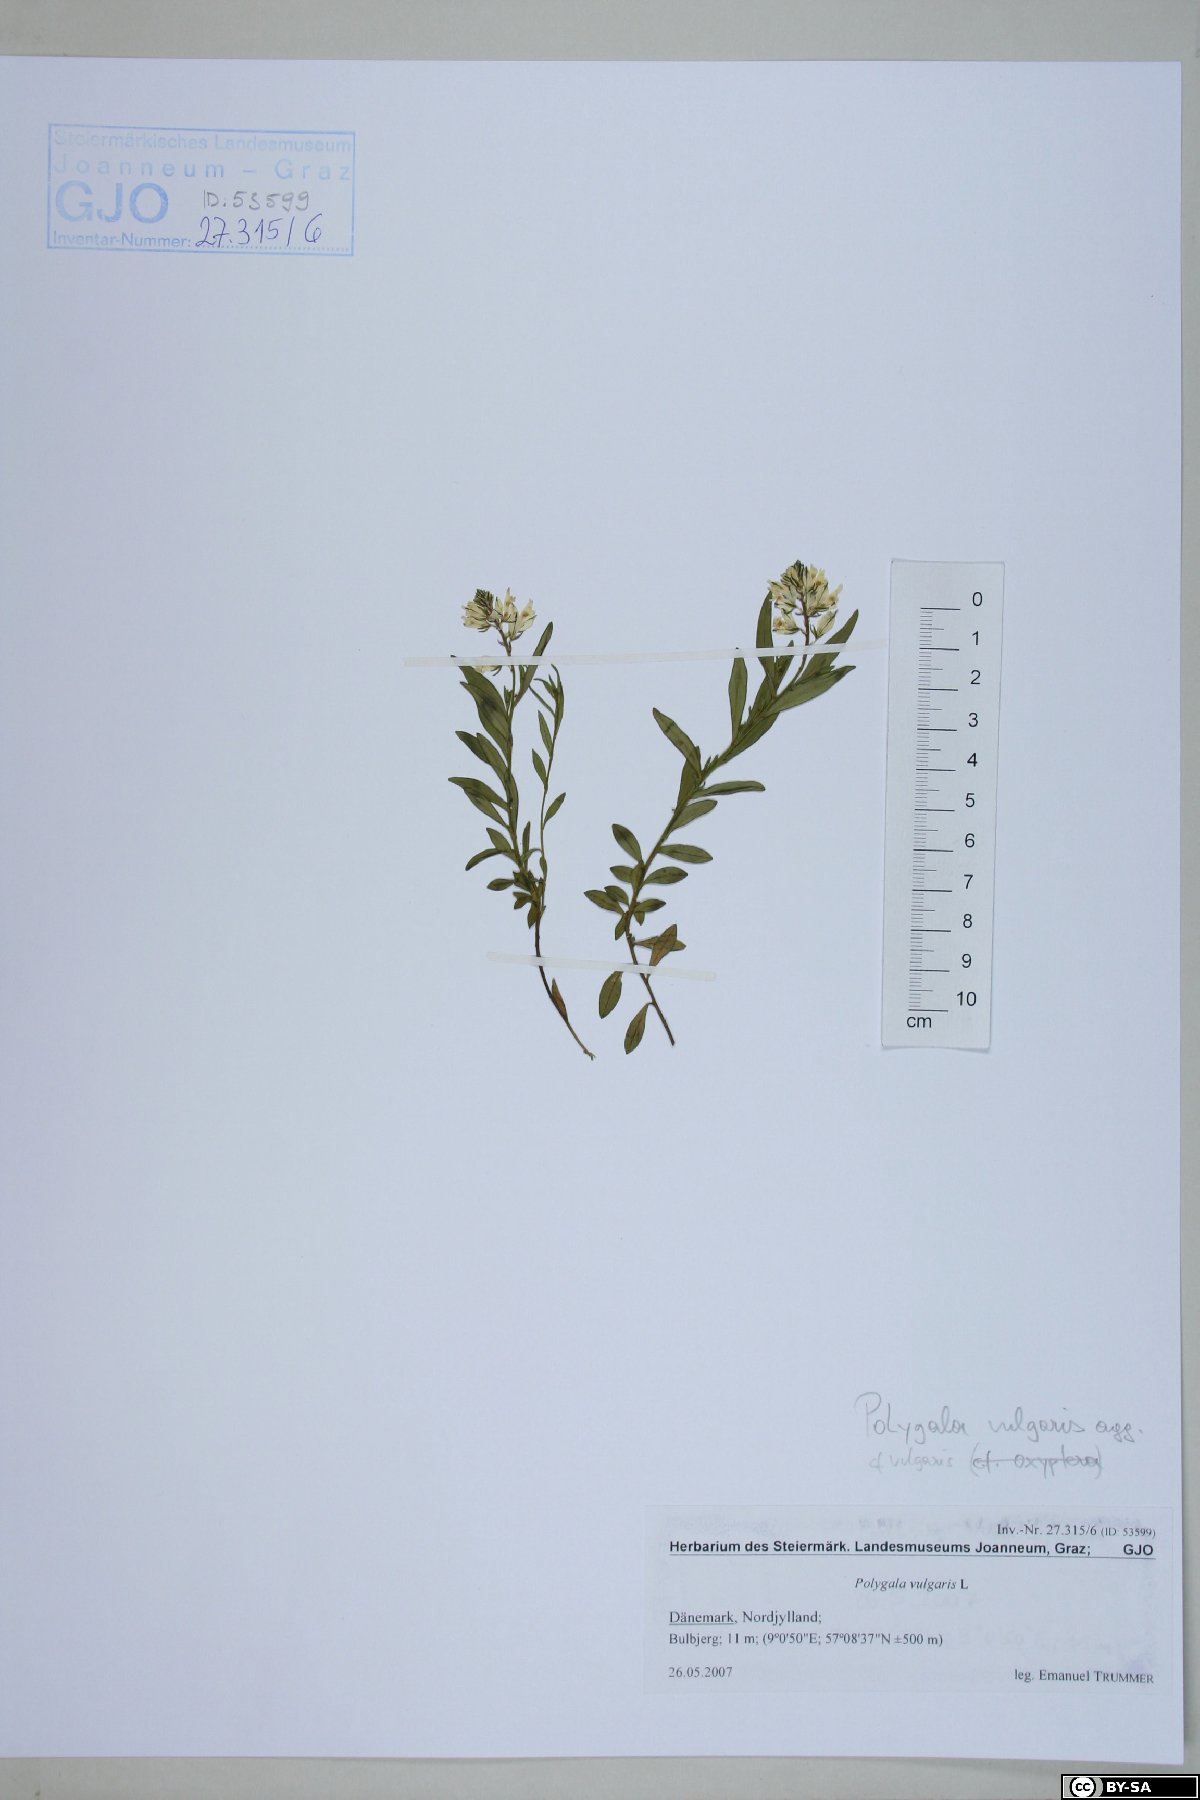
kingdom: Plantae
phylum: Tracheophyta
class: Magnoliopsida
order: Fabales
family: Polygalaceae
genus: Polygala
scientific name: Polygala vulgaris
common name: Common milkwort
